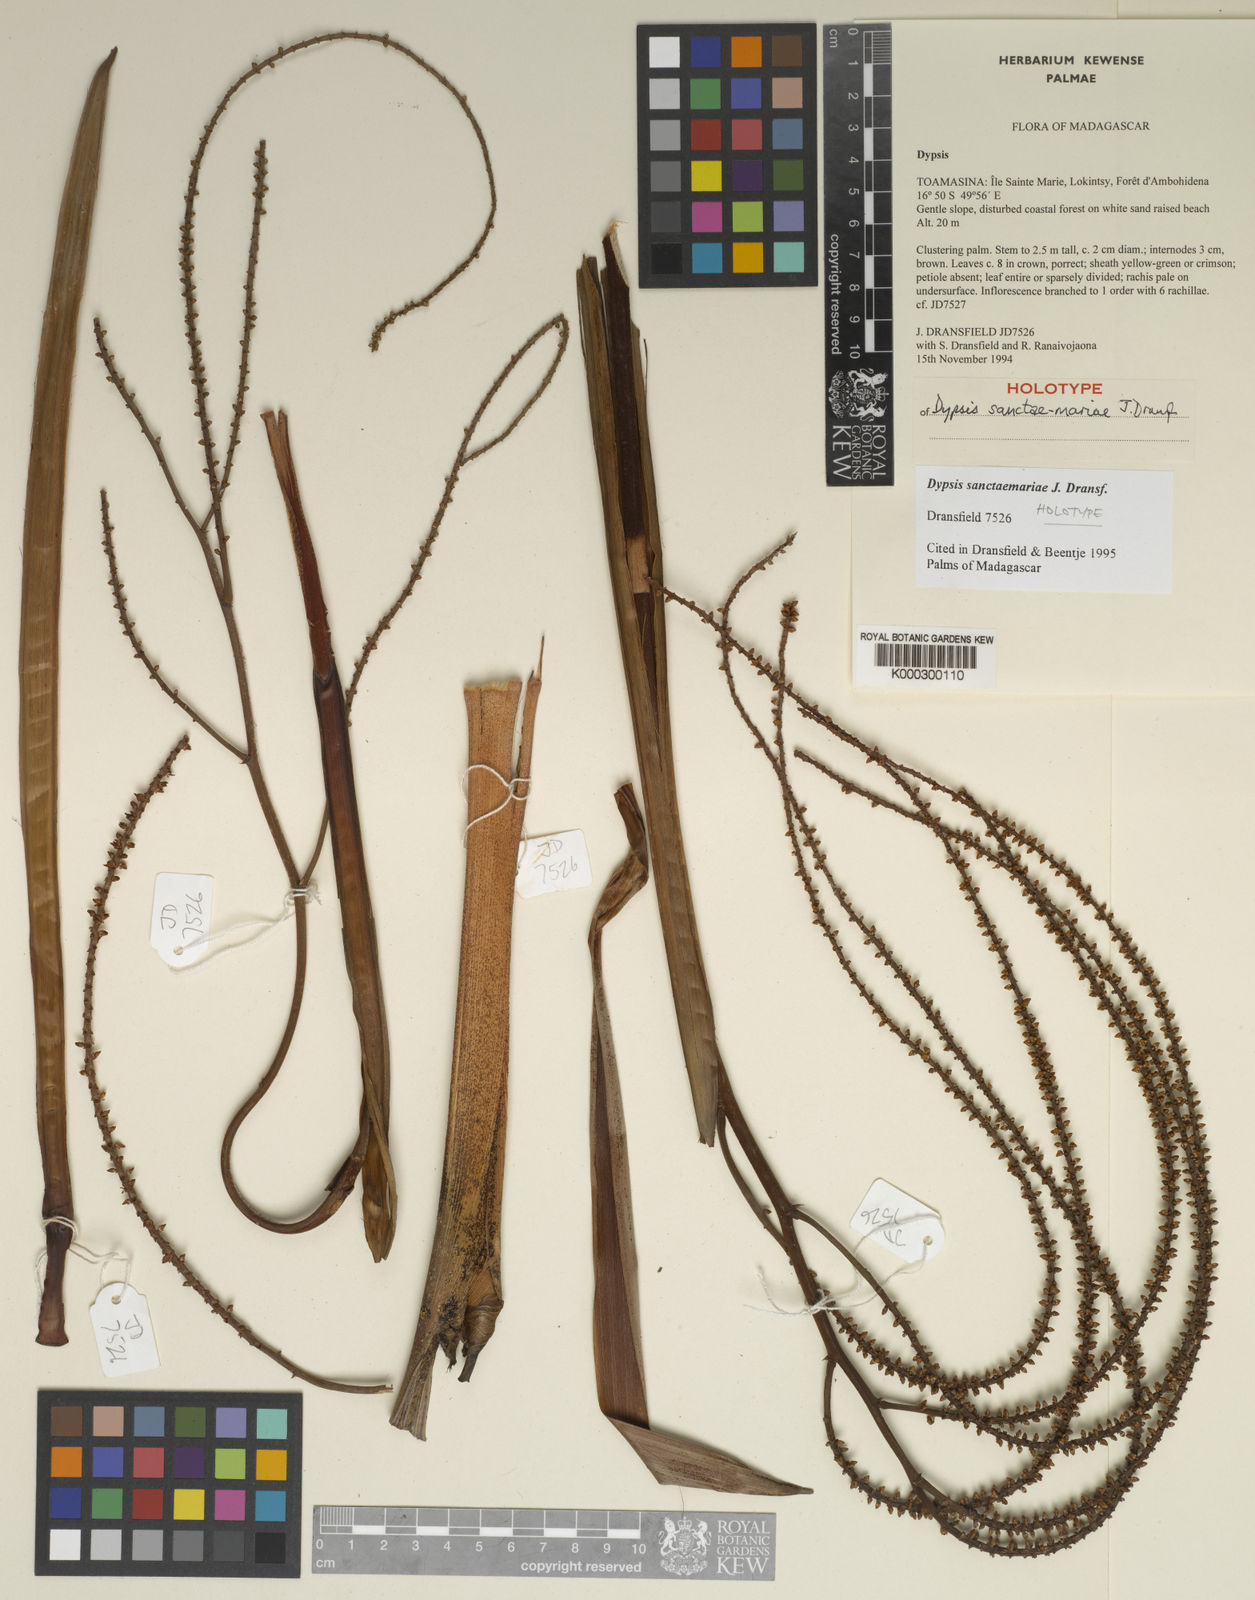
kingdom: Plantae
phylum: Tracheophyta
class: Liliopsida
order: Arecales
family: Arecaceae
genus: Dypsis
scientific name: Dypsis sanctaemariae
